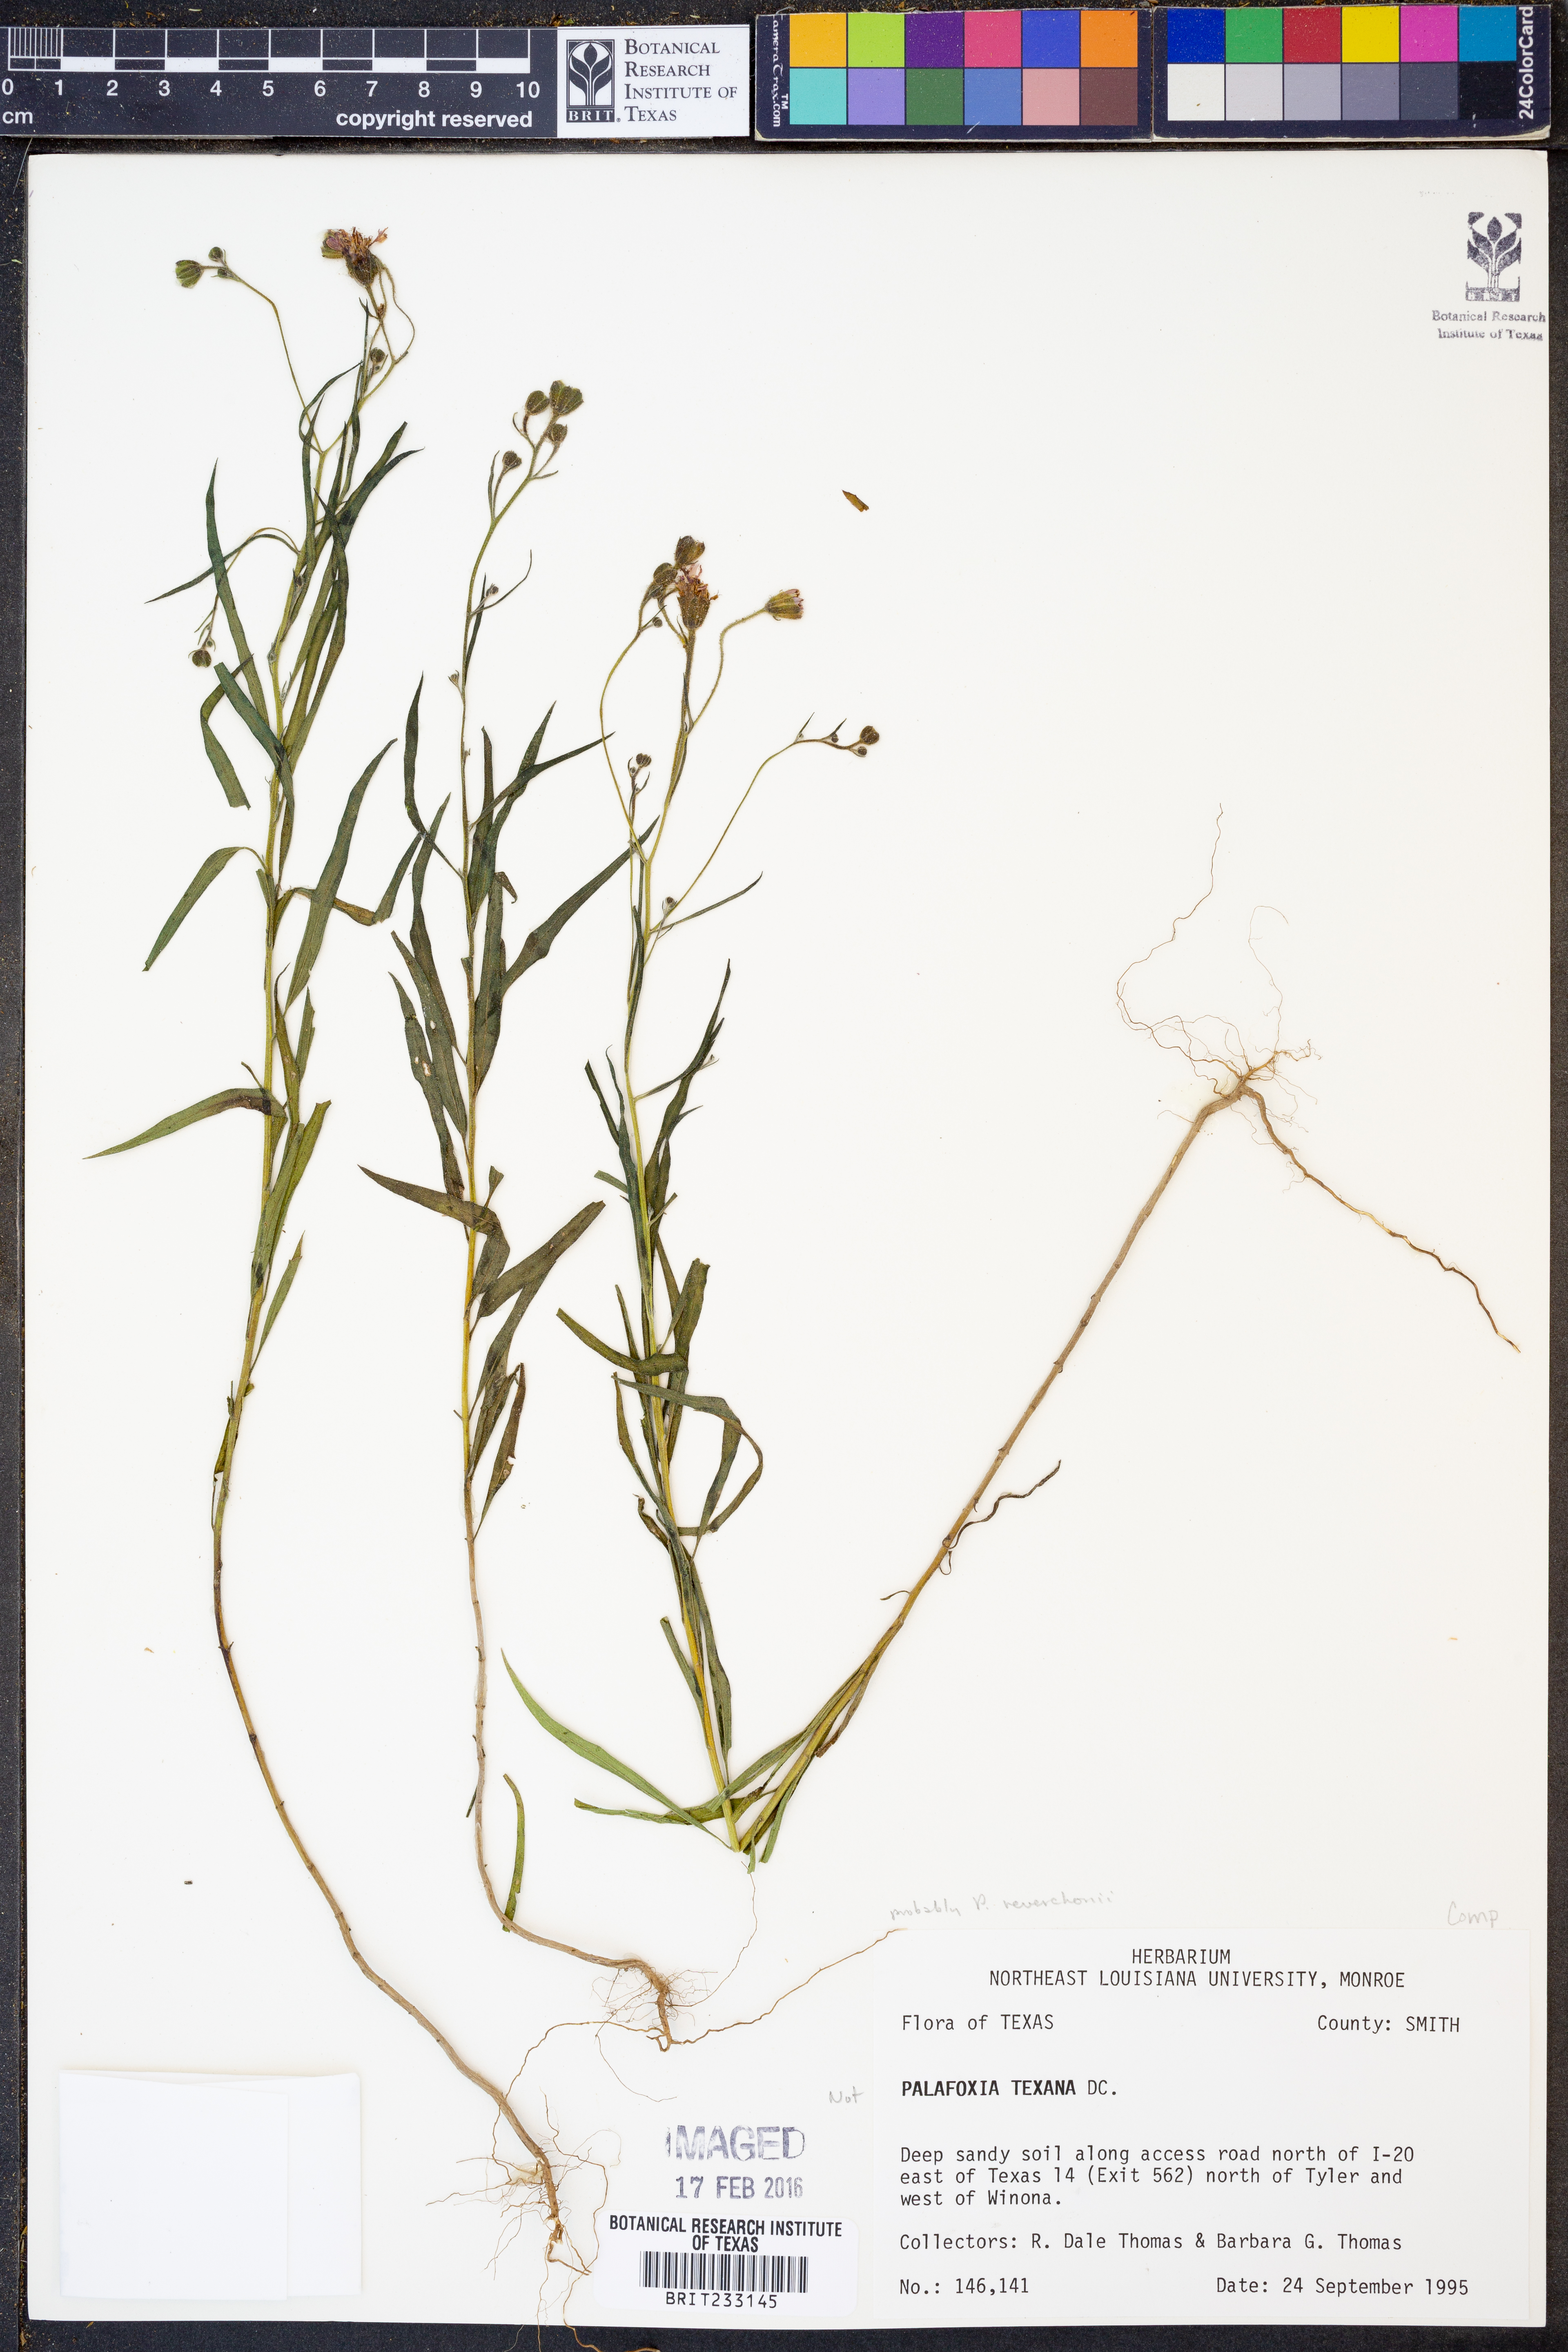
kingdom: Plantae
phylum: Tracheophyta
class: Magnoliopsida
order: Asterales
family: Asteraceae
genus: Palafoxia
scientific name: Palafoxia reverchonii
